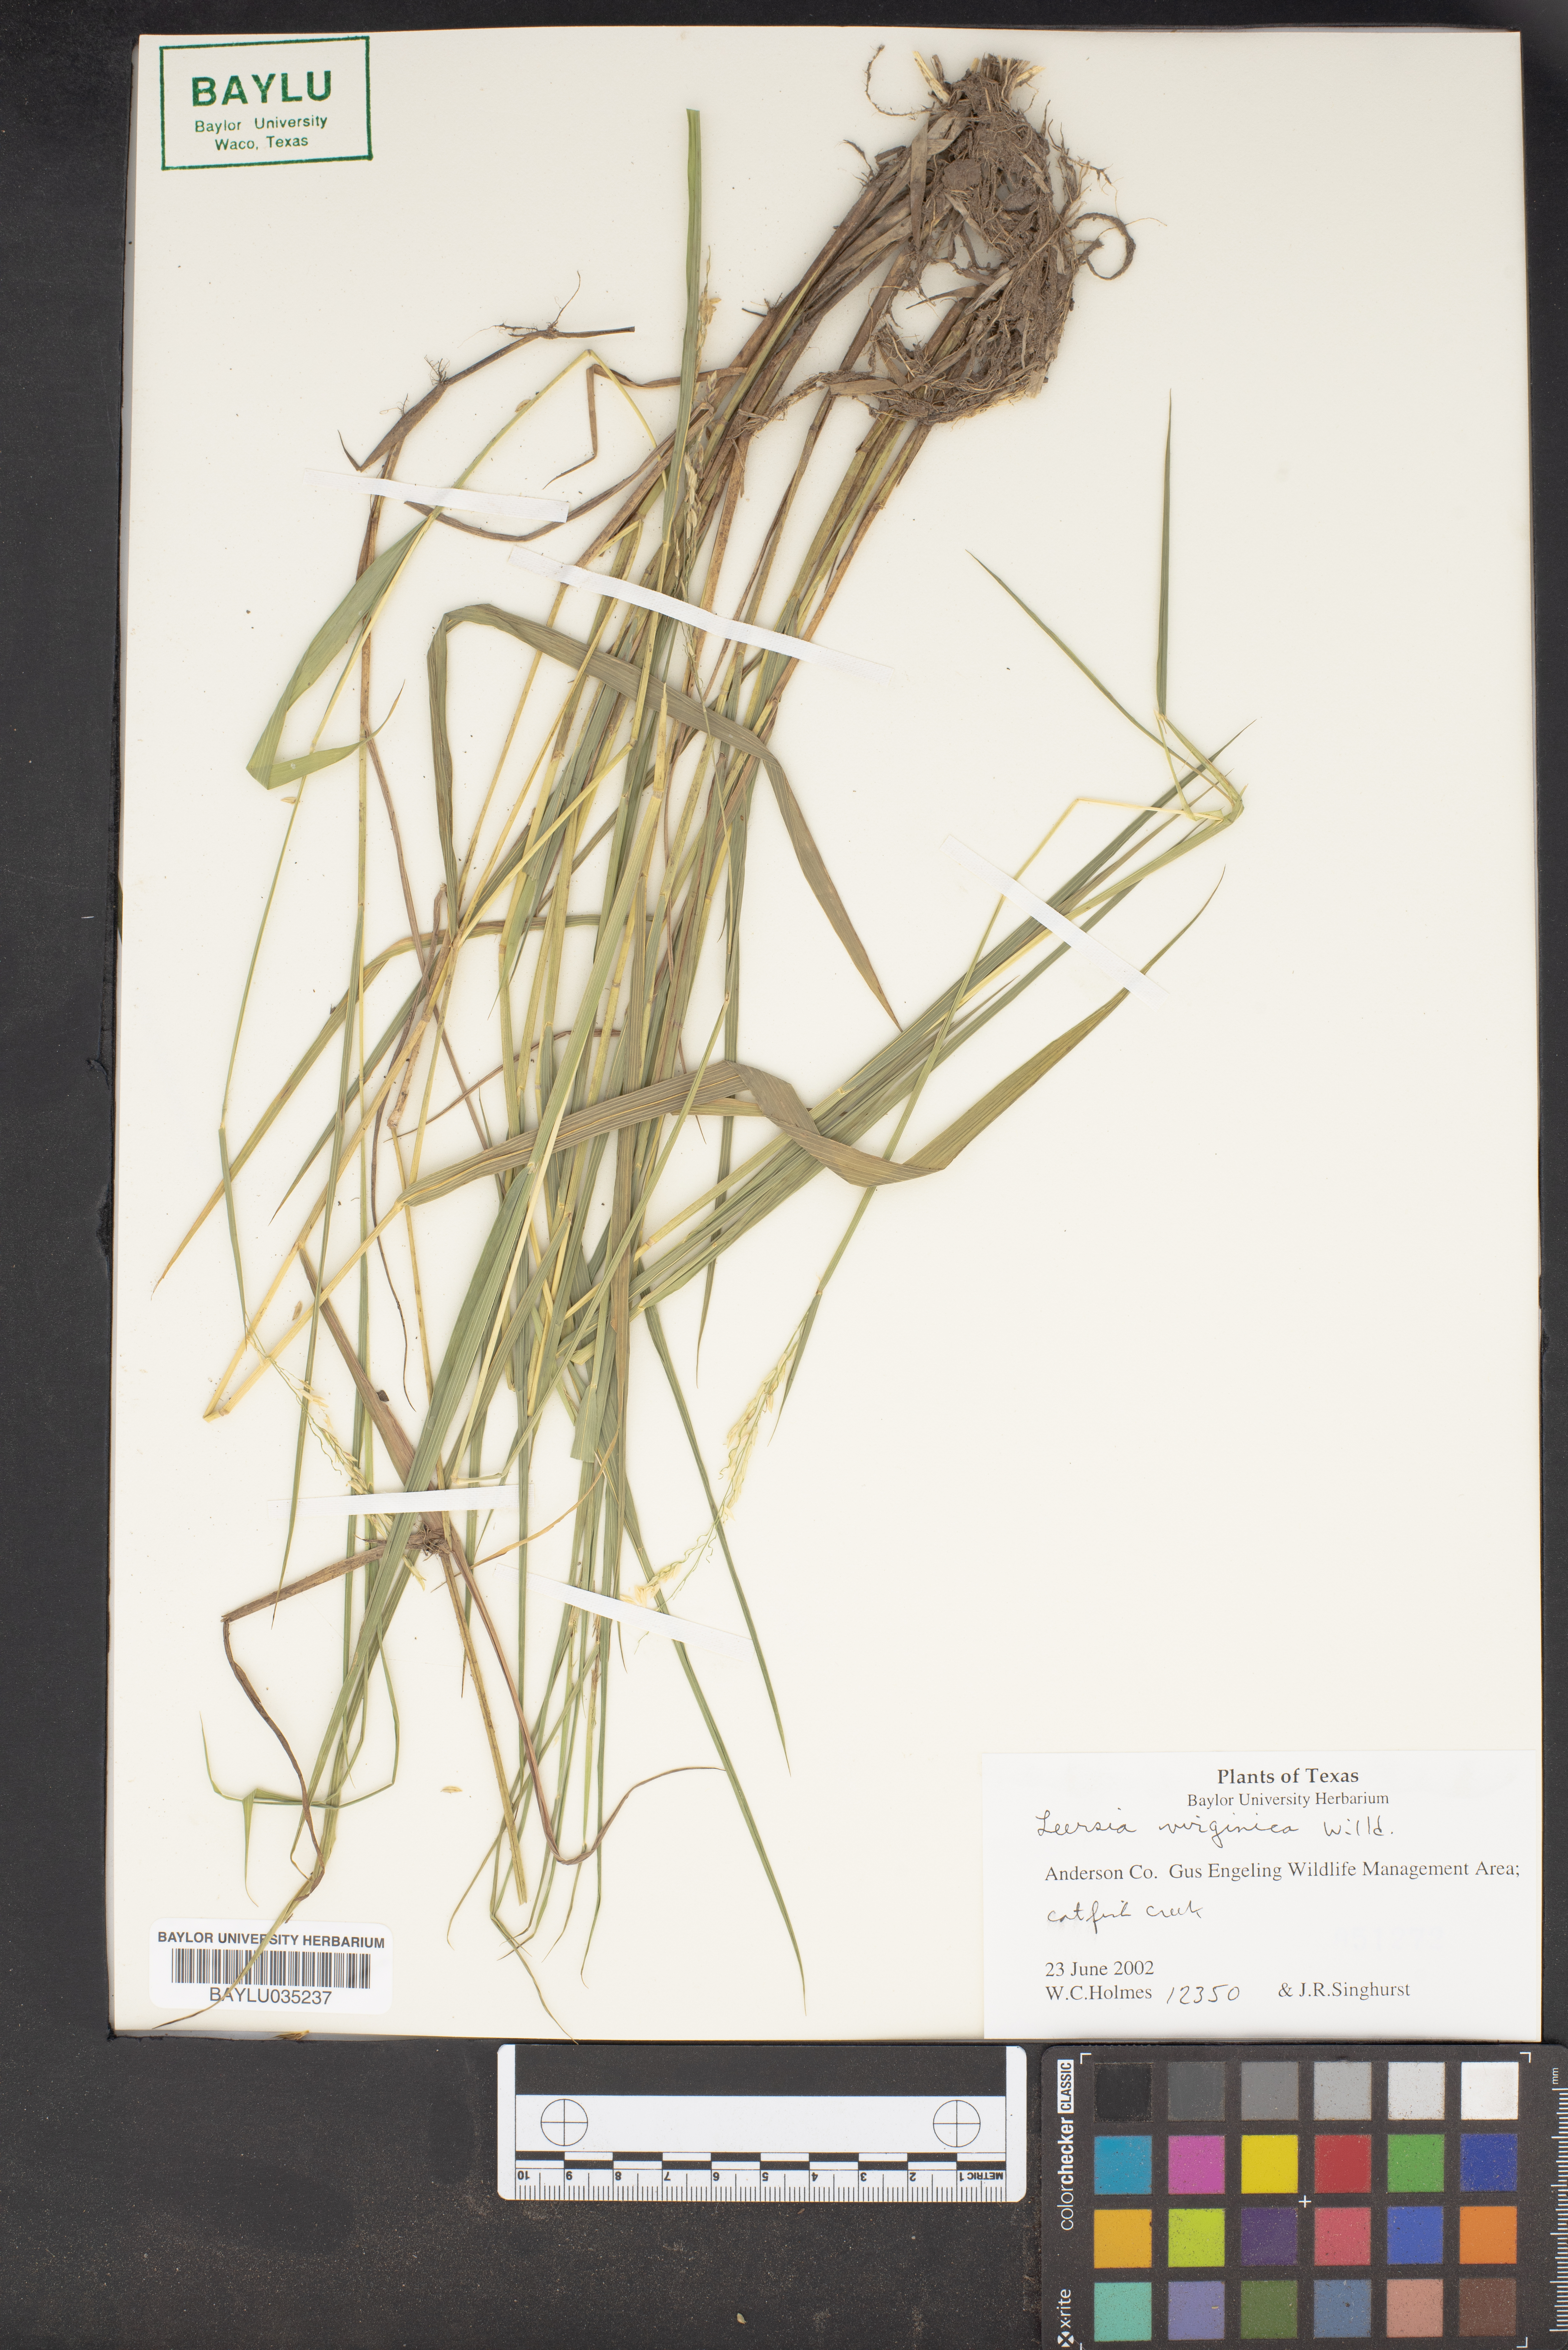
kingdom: Plantae
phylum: Tracheophyta
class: Liliopsida
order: Poales
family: Poaceae
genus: Leersia
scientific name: Leersia virginica
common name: White cutgrass
